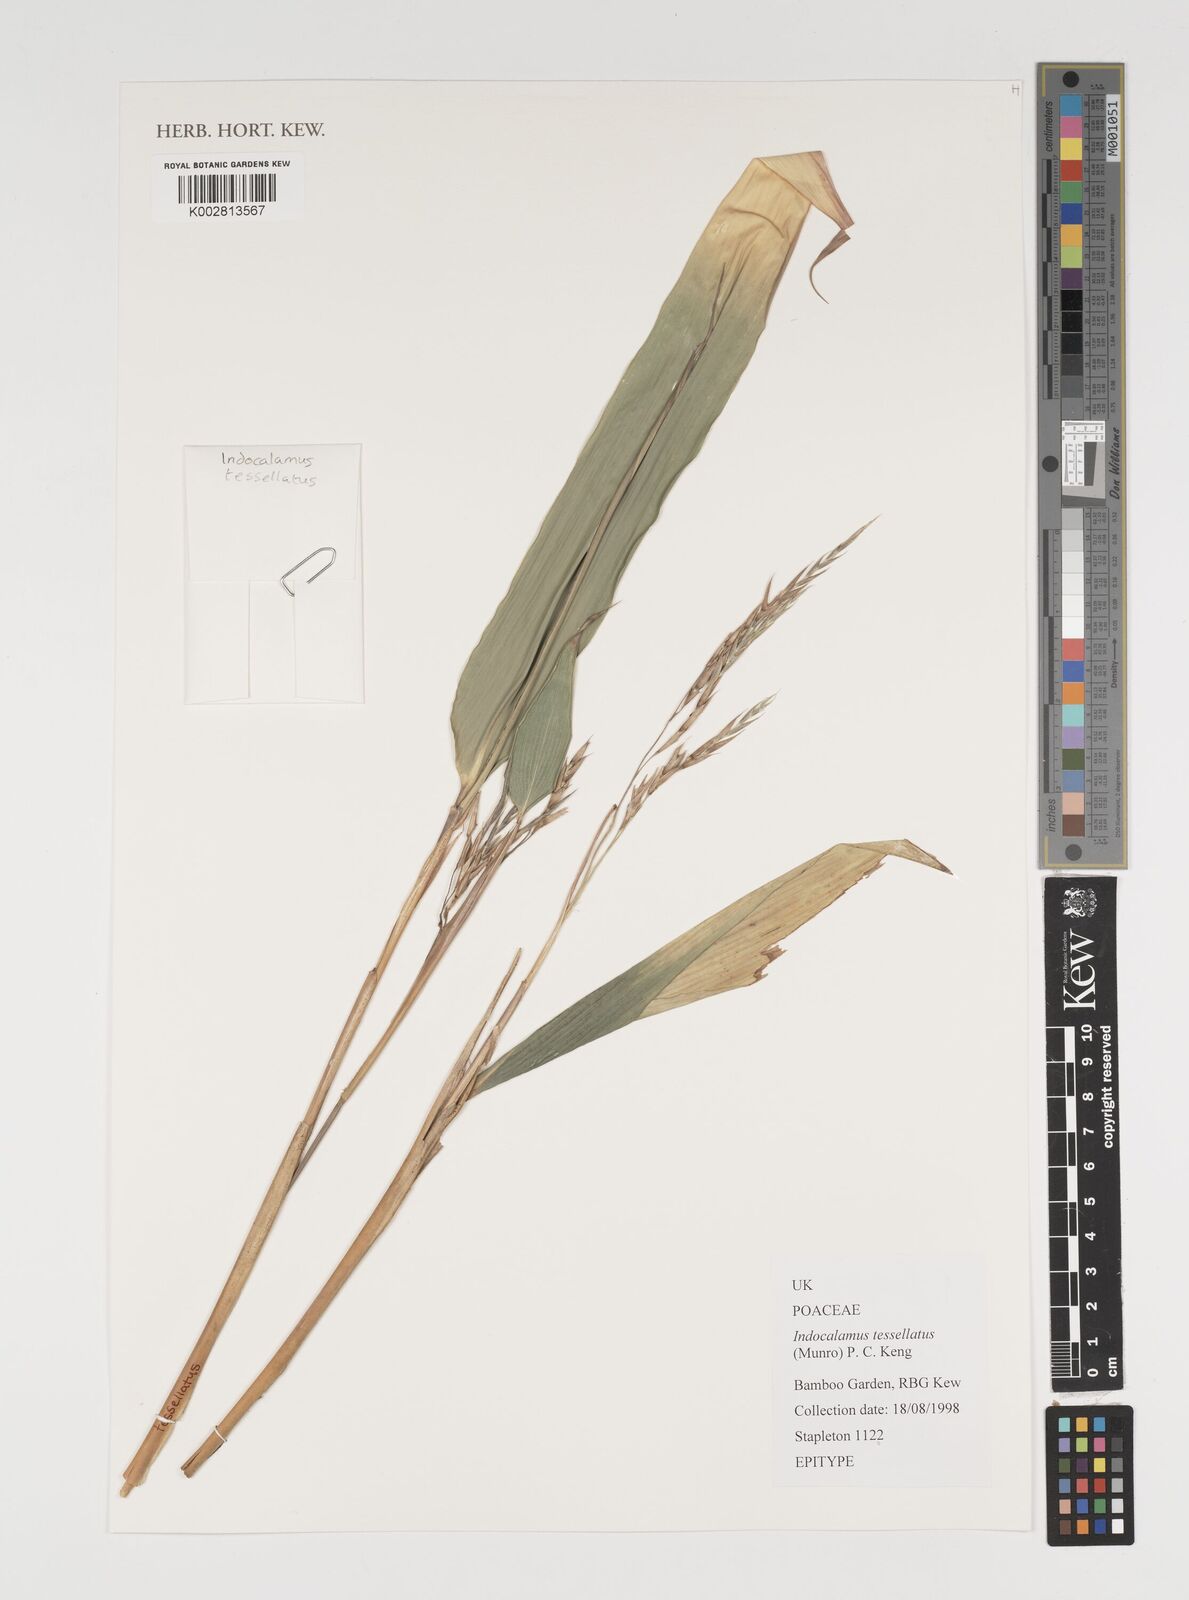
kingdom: Plantae
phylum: Tracheophyta
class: Liliopsida
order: Poales
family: Poaceae
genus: Indocalamus
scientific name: Indocalamus tessellatus
